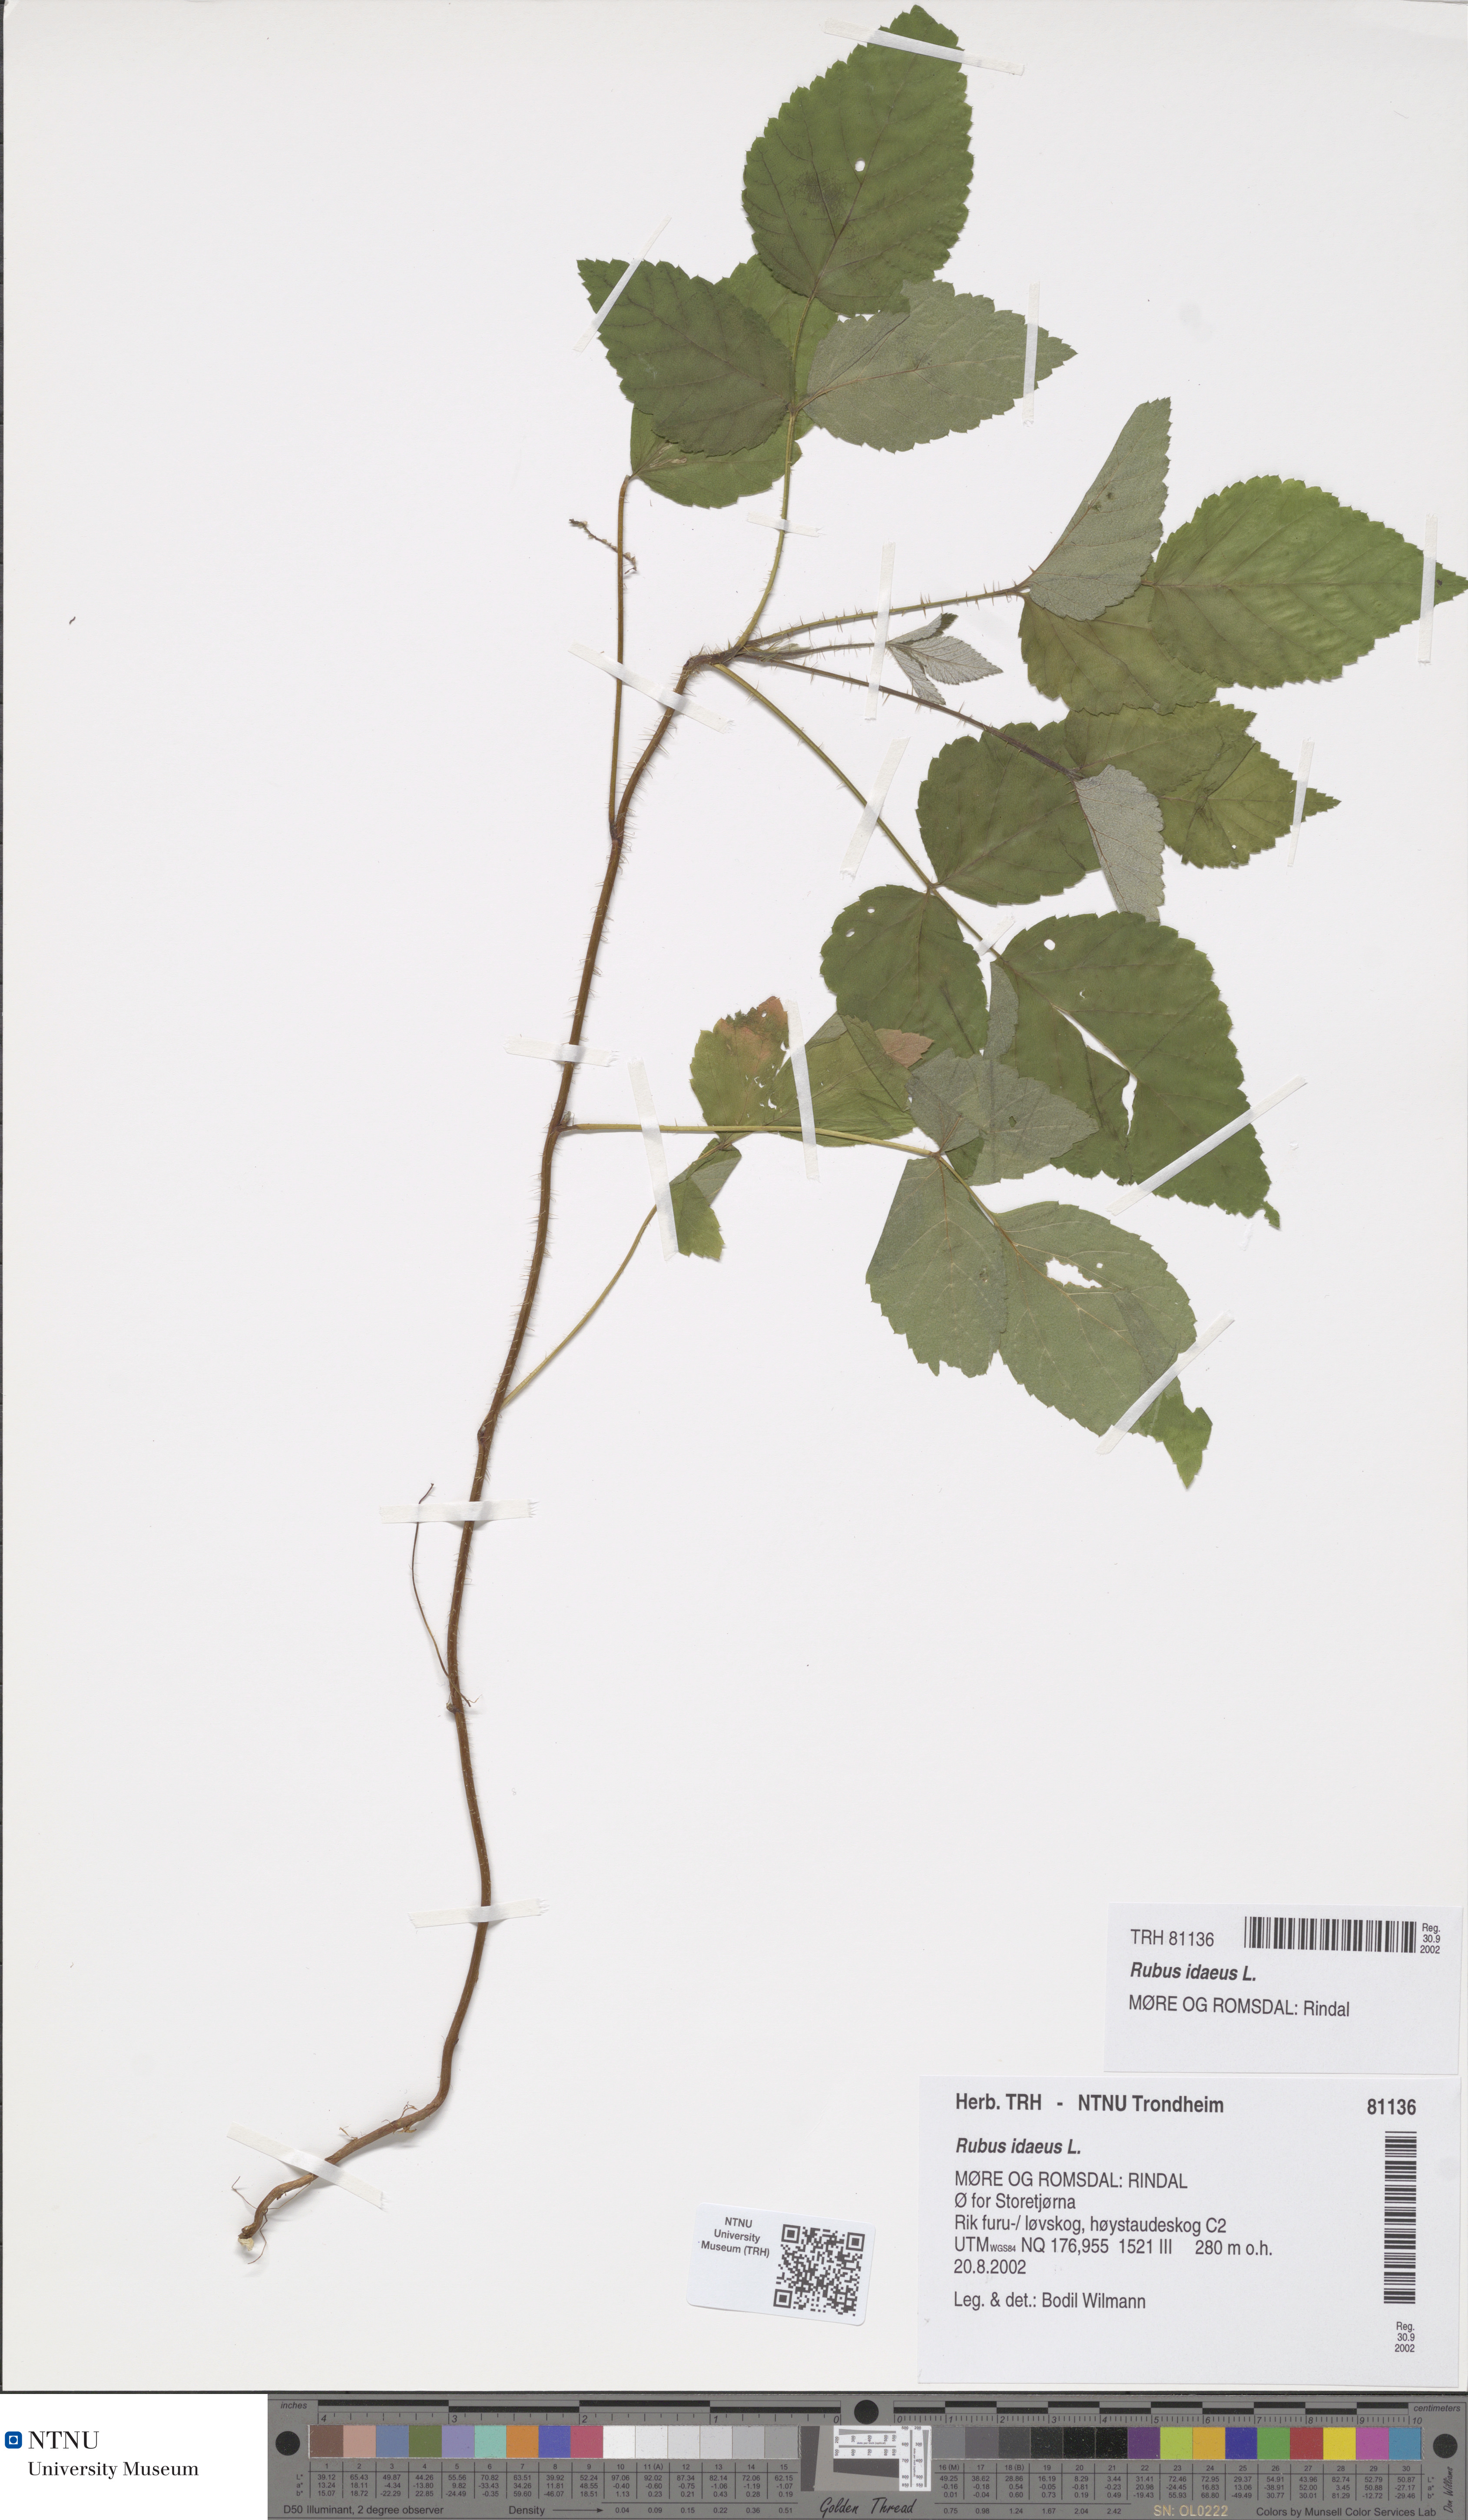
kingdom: Plantae
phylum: Tracheophyta
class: Magnoliopsida
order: Rosales
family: Rosaceae
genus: Rubus
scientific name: Rubus idaeus
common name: Raspberry
